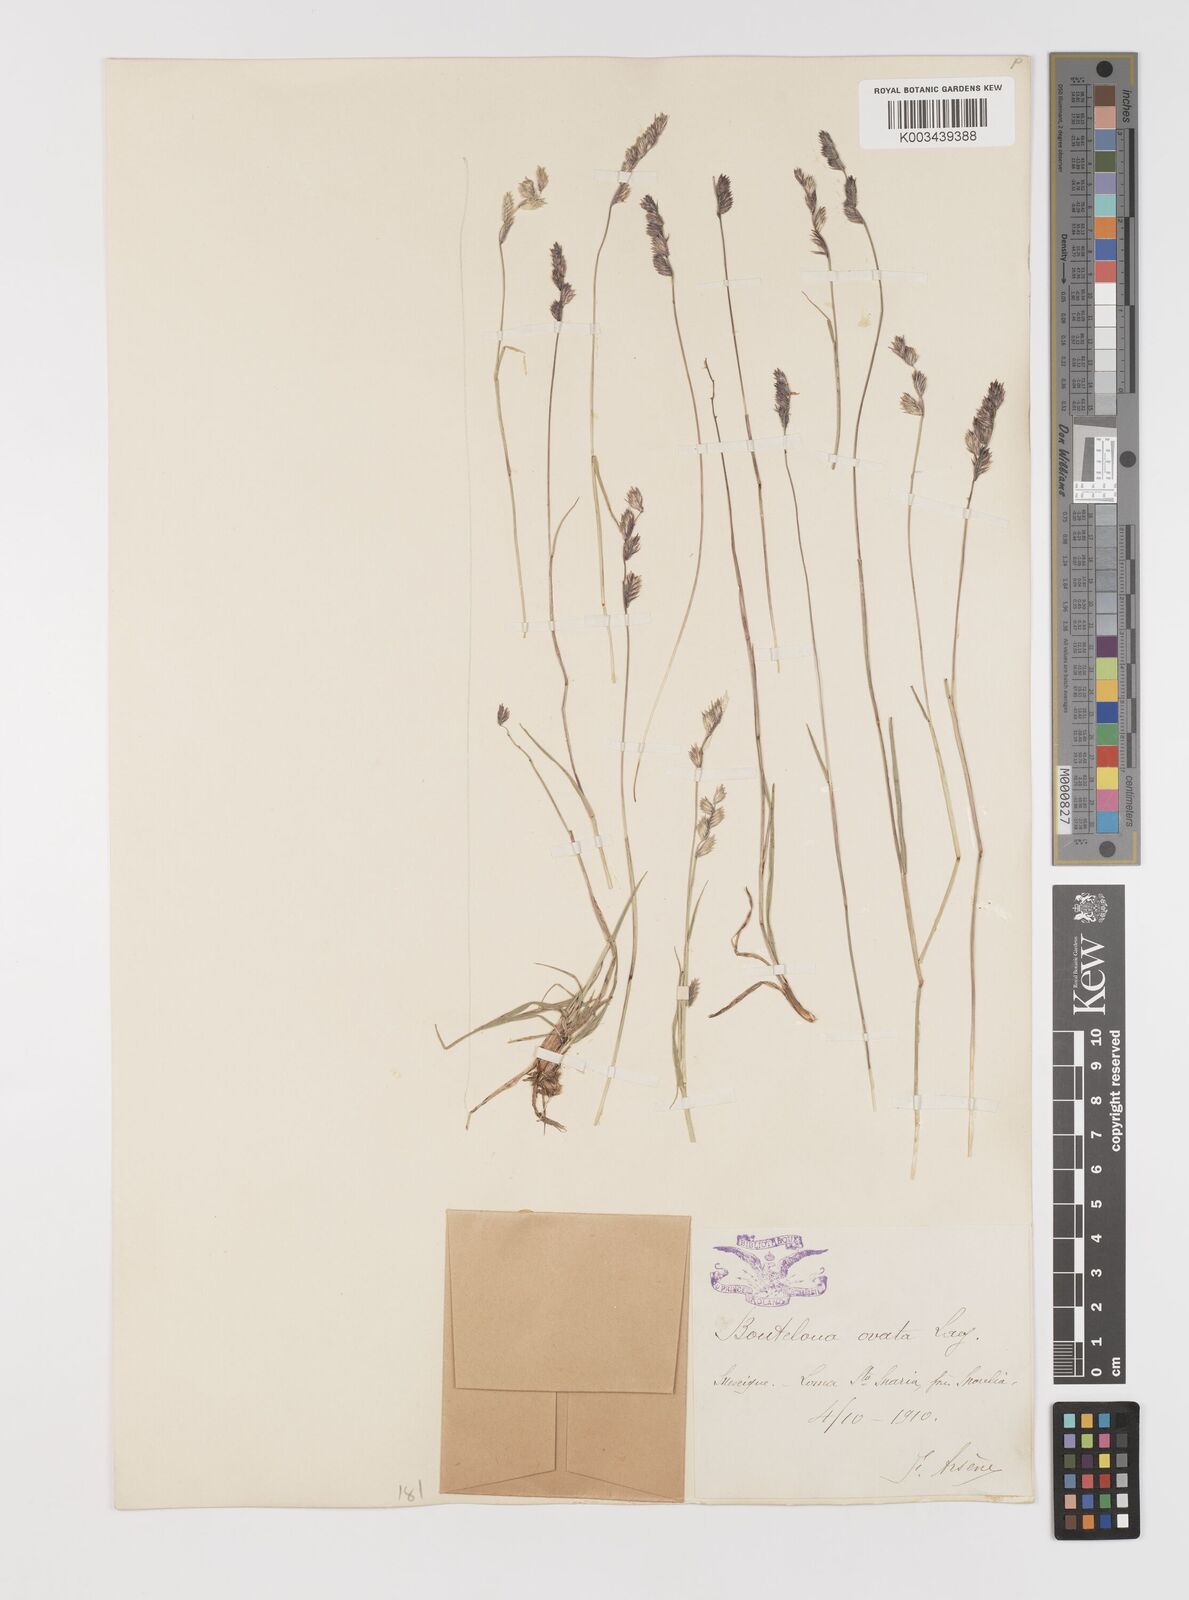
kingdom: Plantae
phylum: Tracheophyta
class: Liliopsida
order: Poales
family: Poaceae
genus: Bouteloua
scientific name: Bouteloua chondrosioides
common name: Sprucetop grama
